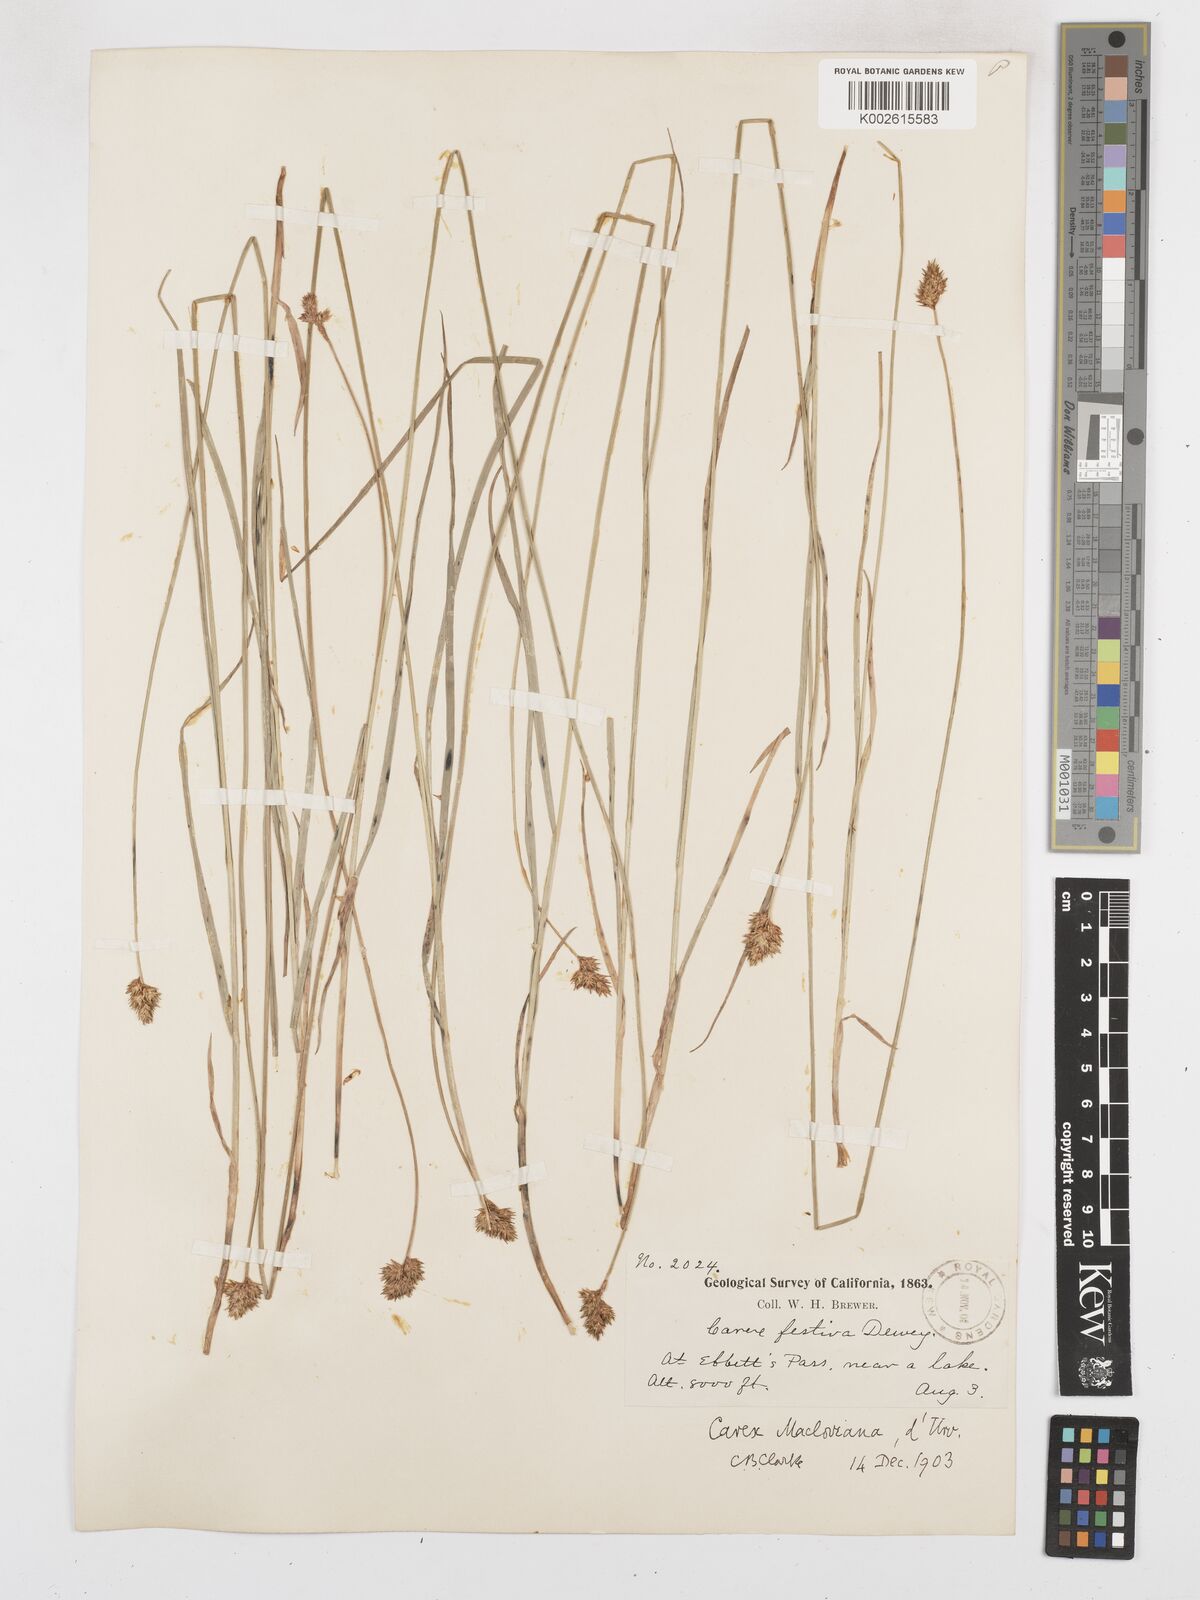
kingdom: Plantae
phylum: Tracheophyta
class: Liliopsida
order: Poales
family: Cyperaceae
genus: Carex
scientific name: Carex macloviana
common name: Falkland island sedge
